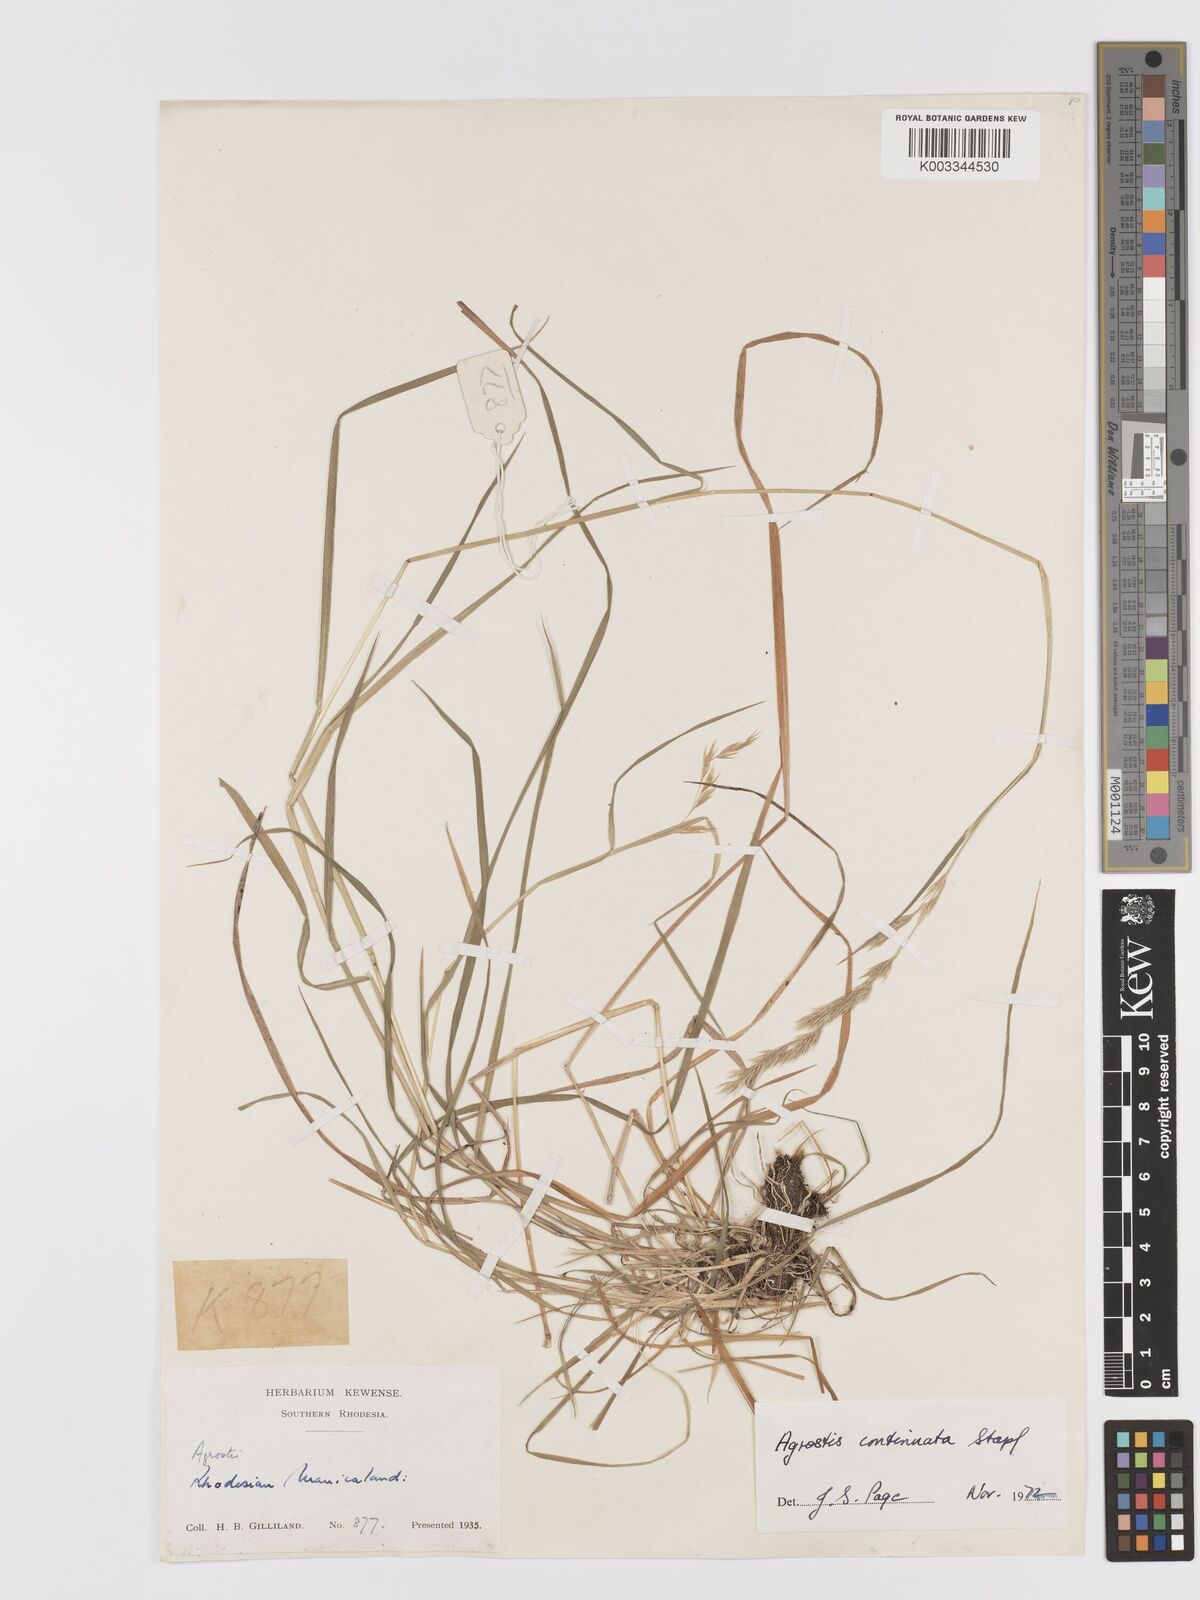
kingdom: Plantae
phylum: Tracheophyta
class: Liliopsida
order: Poales
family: Poaceae
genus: Agrostis
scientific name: Agrostis continuata
